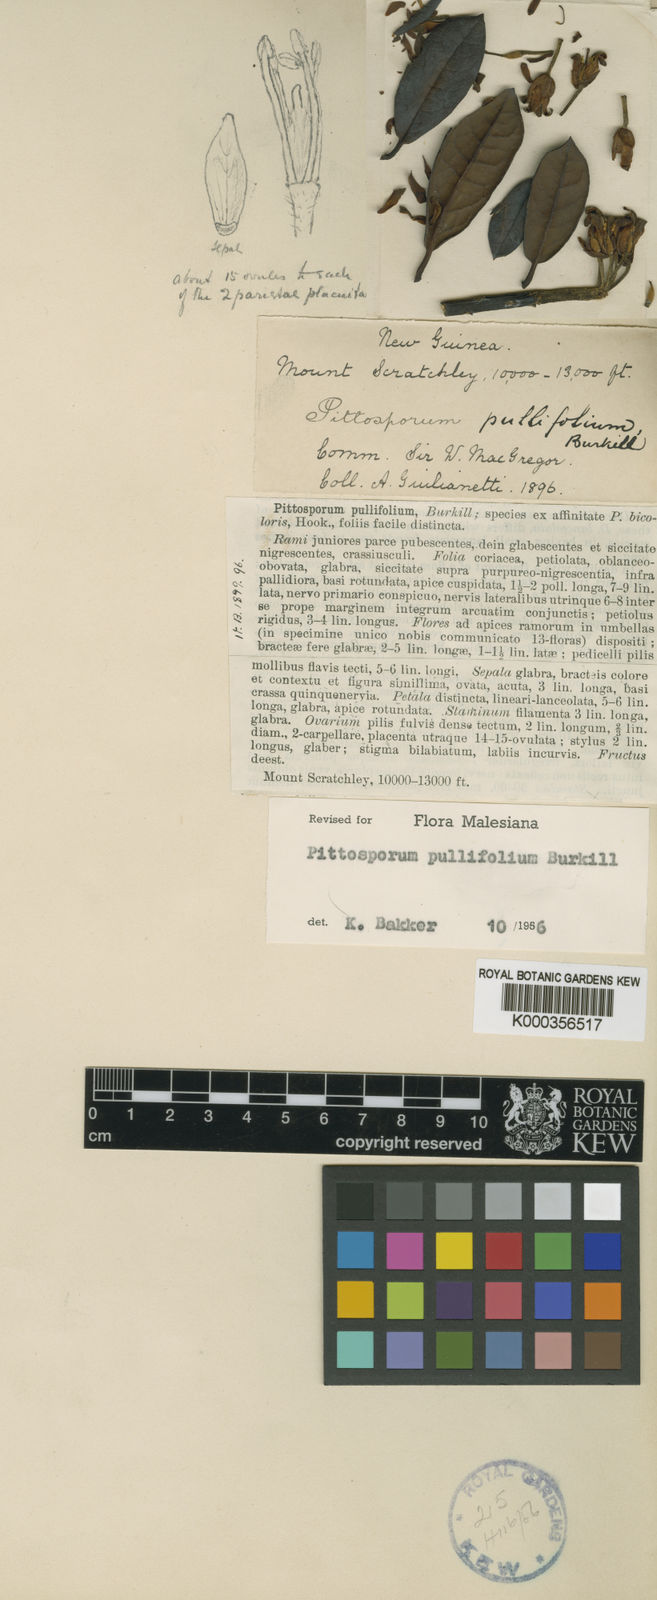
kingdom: Plantae
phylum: Tracheophyta
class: Magnoliopsida
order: Apiales
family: Pittosporaceae
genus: Pittosporum
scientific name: Pittosporum pullifolium
